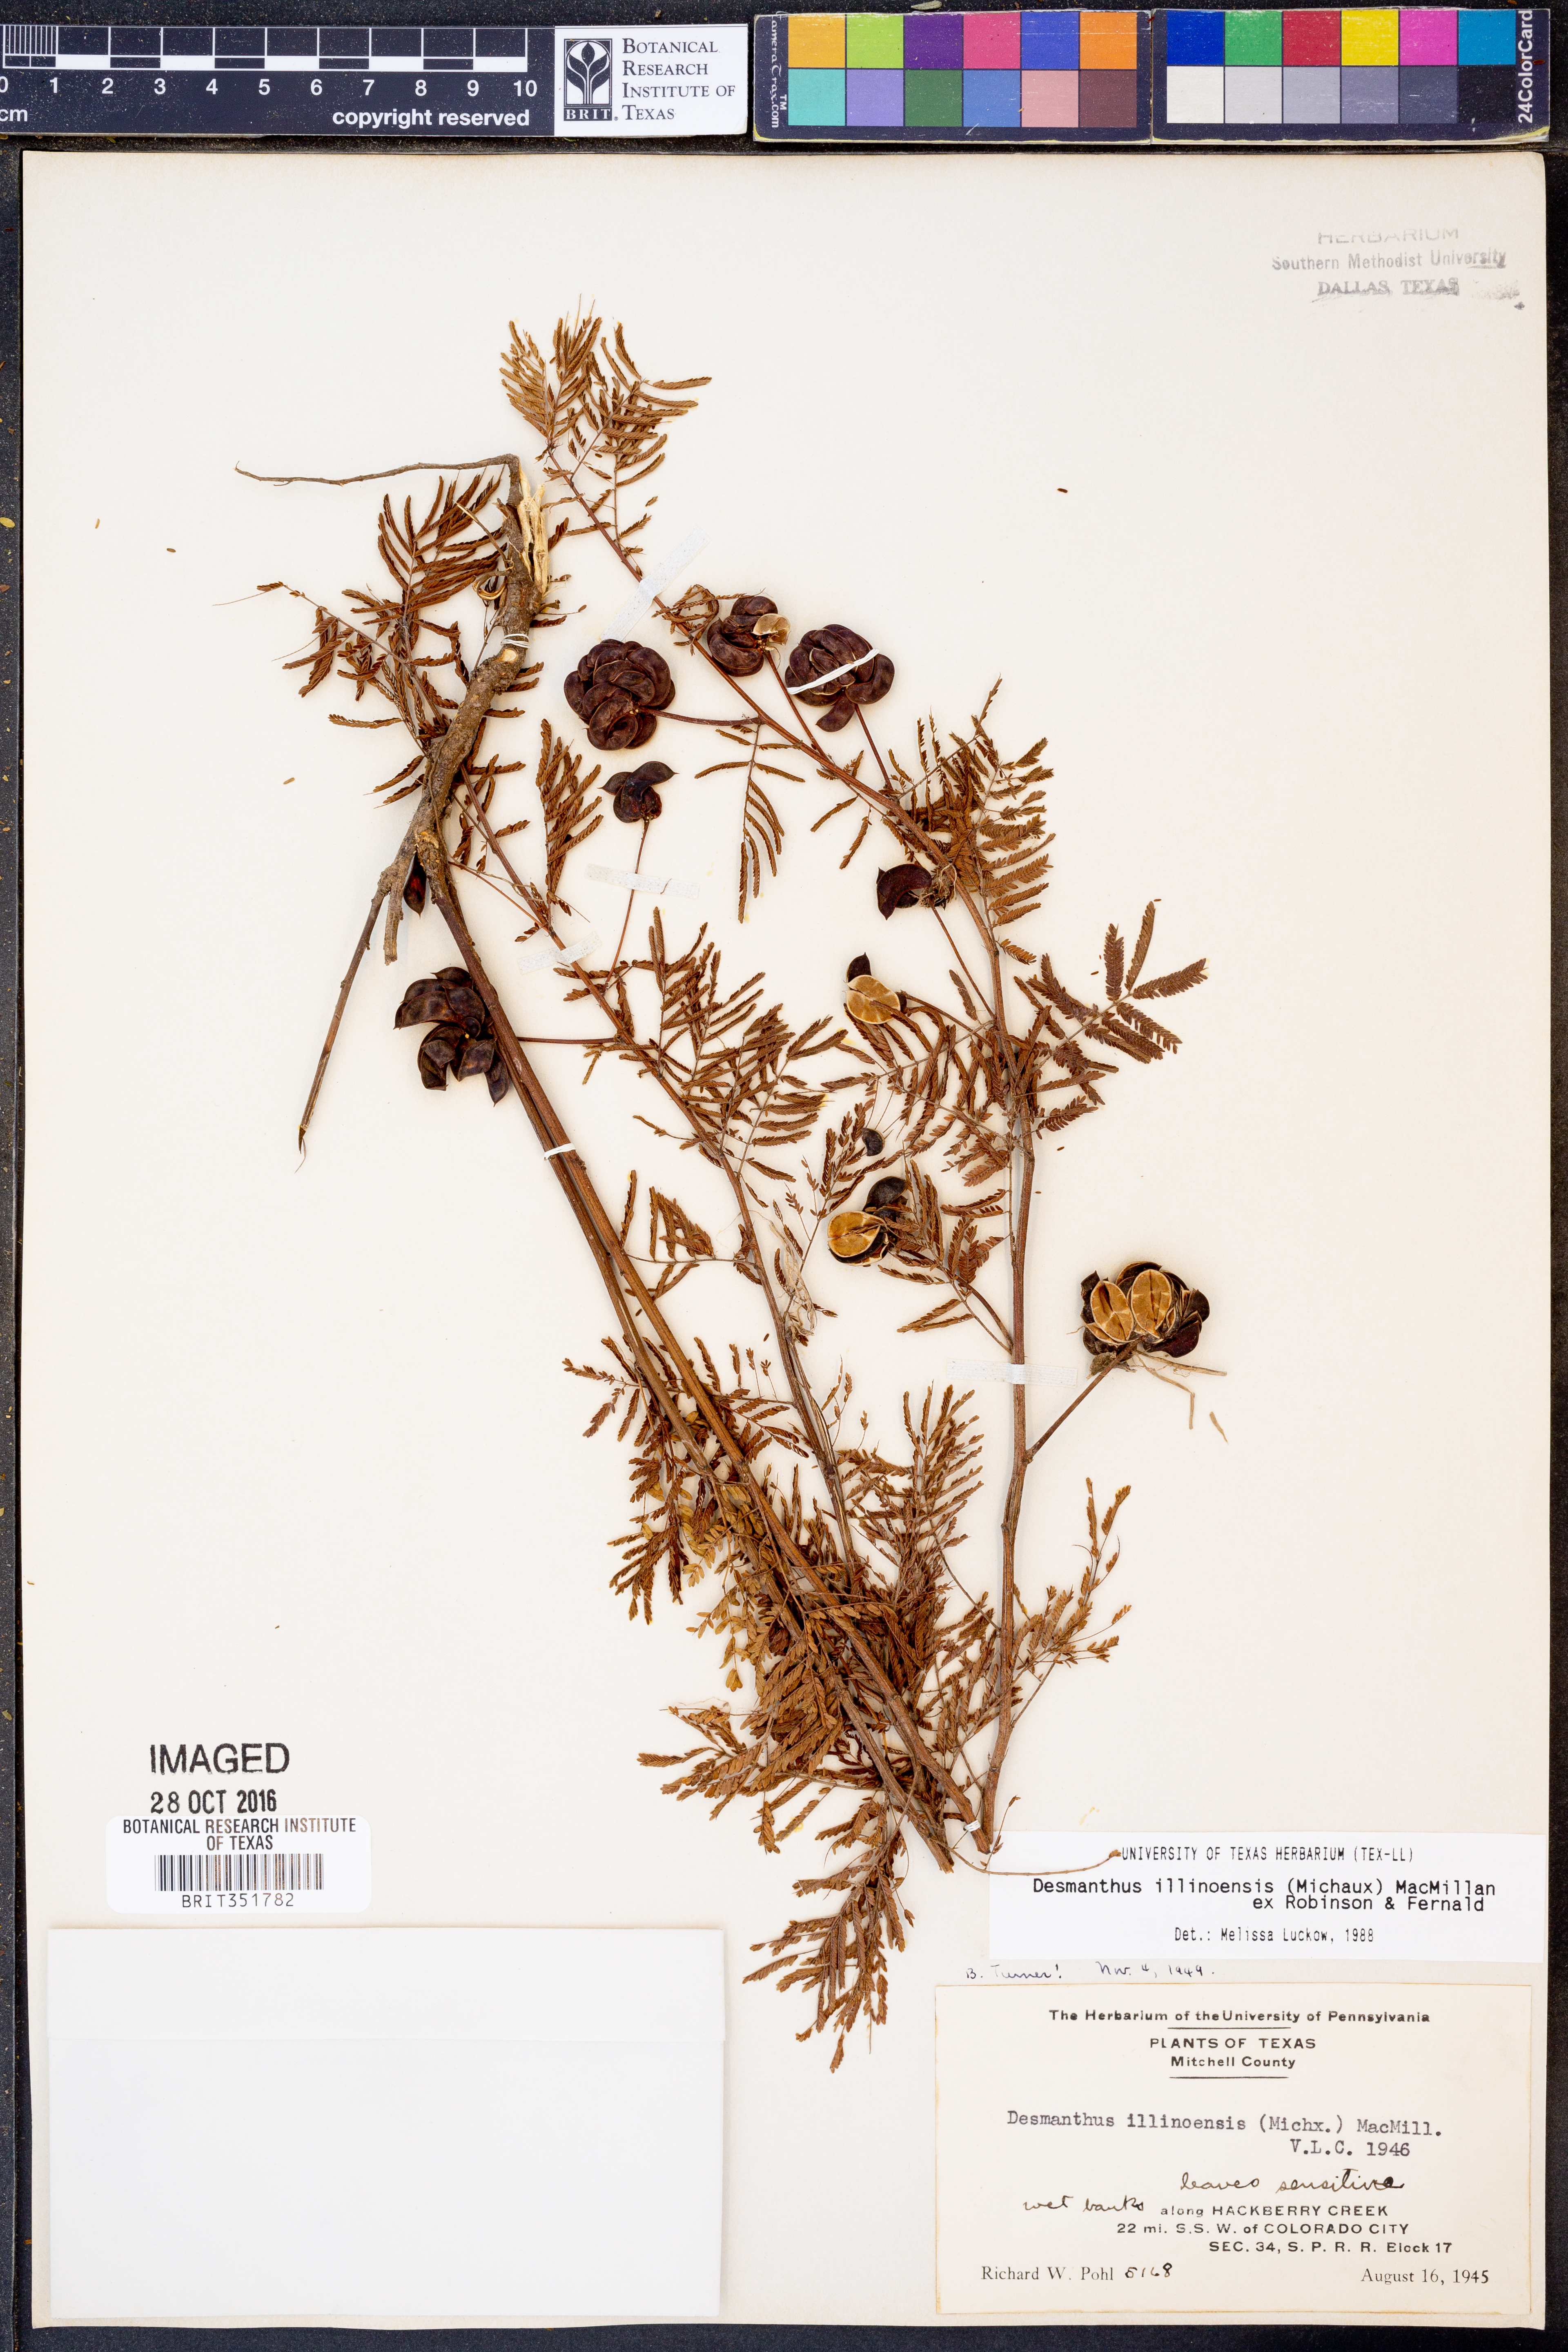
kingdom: Plantae
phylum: Tracheophyta
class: Magnoliopsida
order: Fabales
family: Fabaceae
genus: Desmanthus
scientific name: Desmanthus illinoensis
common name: Illinois bundle-flower
